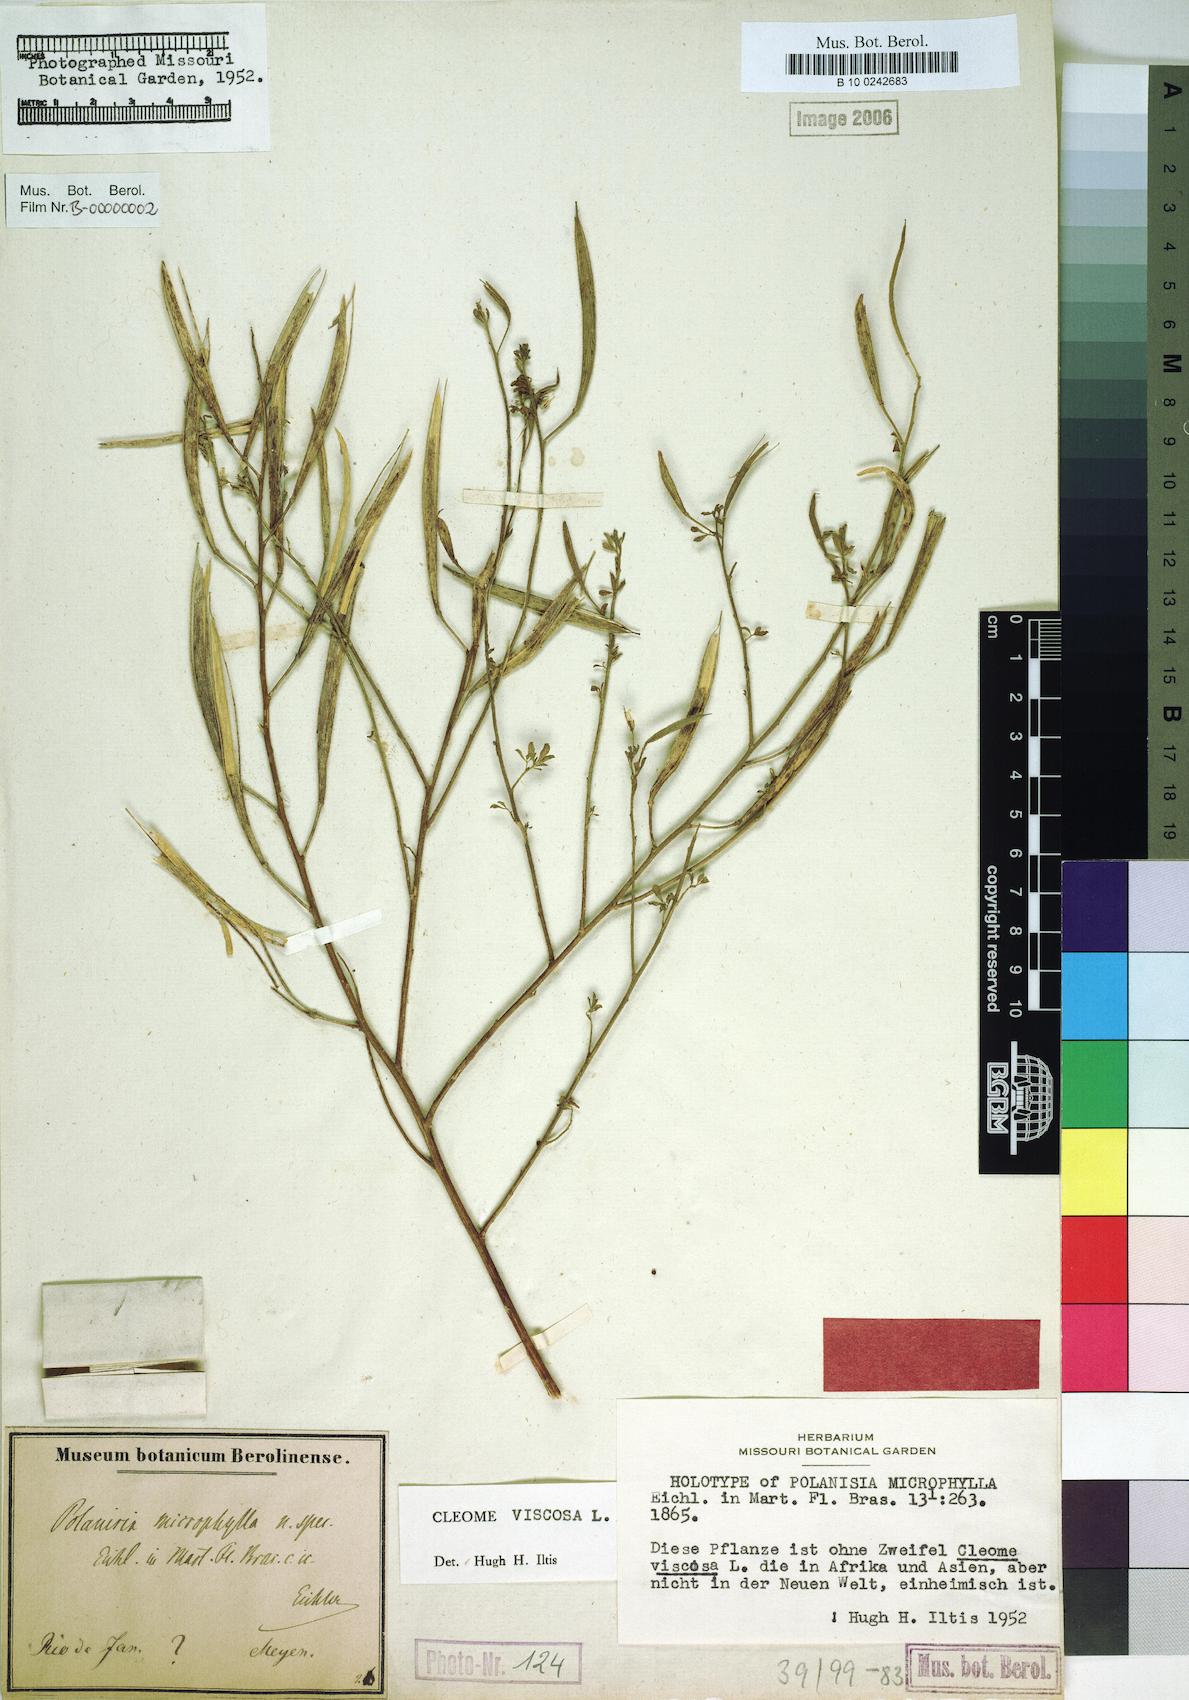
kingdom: Plantae
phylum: Tracheophyta
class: Magnoliopsida
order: Brassicales
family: Cleomaceae
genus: Arivela
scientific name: Arivela viscosa
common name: Asian spiderflower
